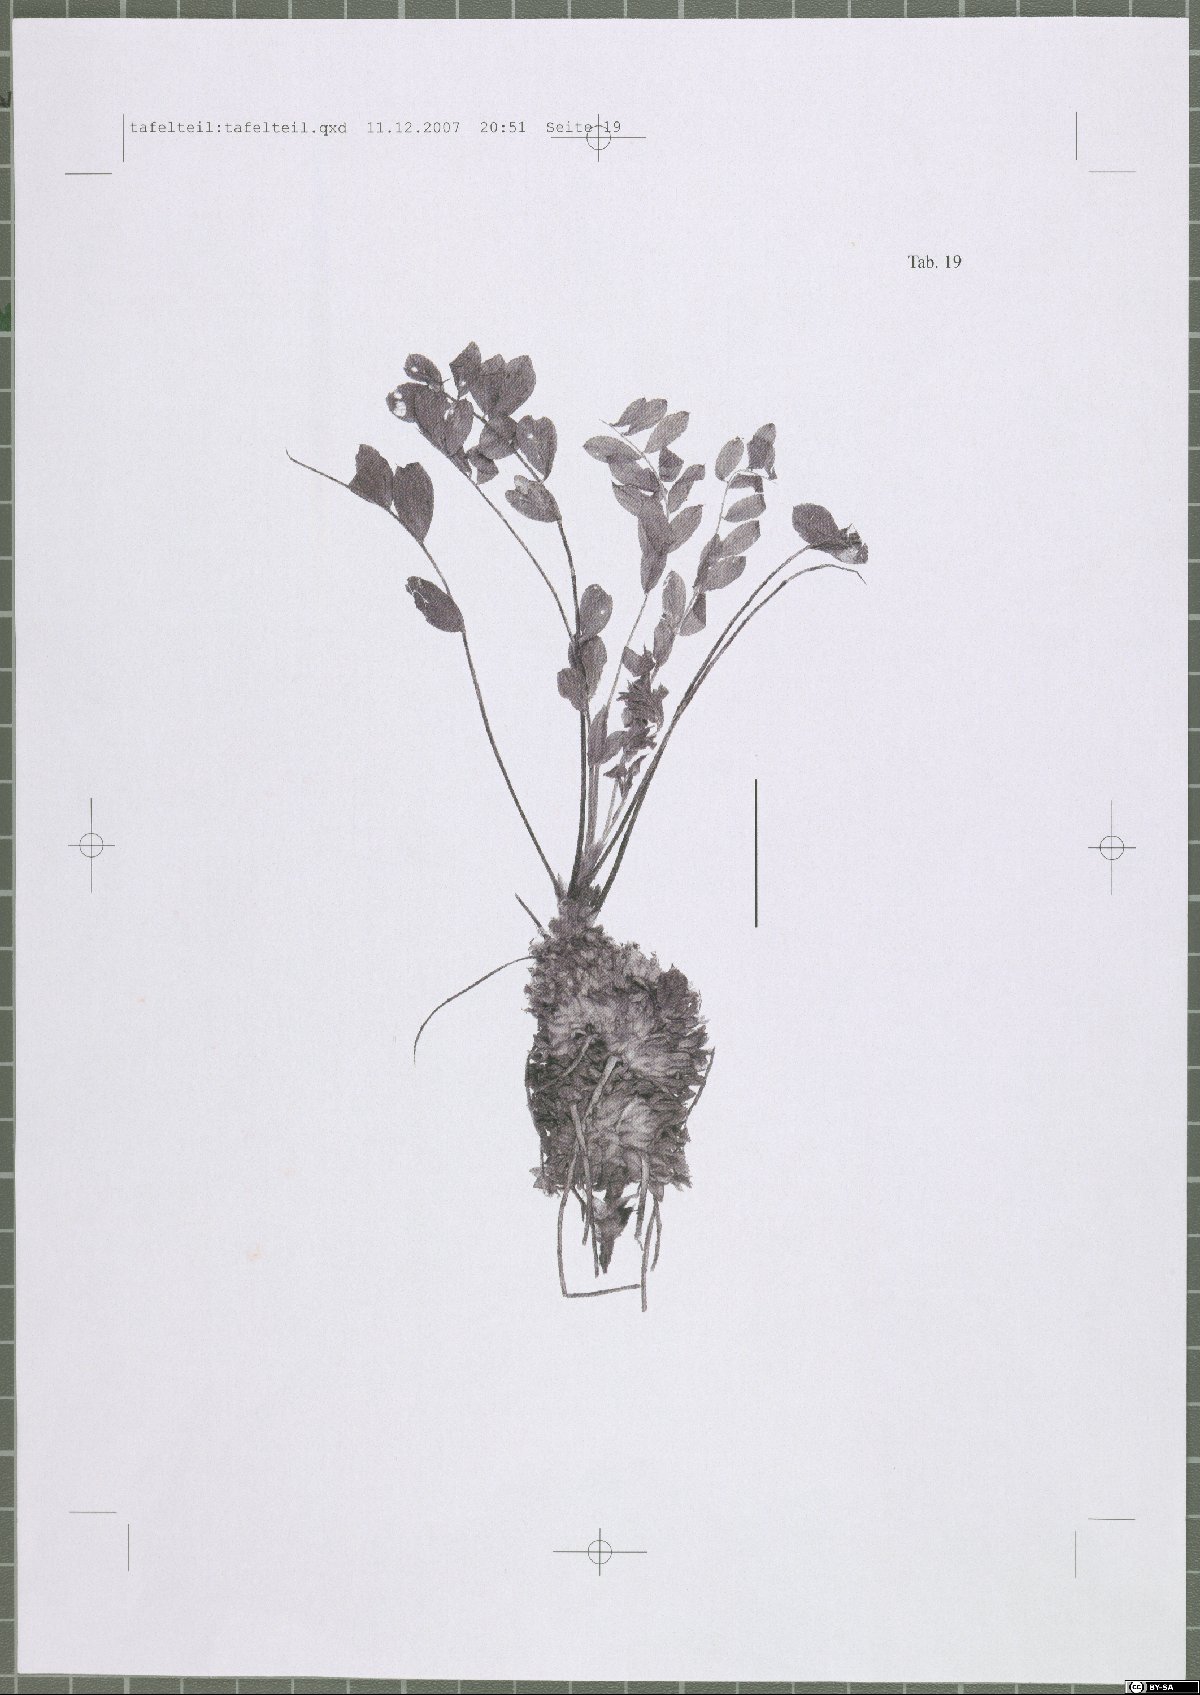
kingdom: Plantae
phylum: Tracheophyta
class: Magnoliopsida
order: Fabales
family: Fabaceae
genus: Astragalus
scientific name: Astragalus dipodurus
